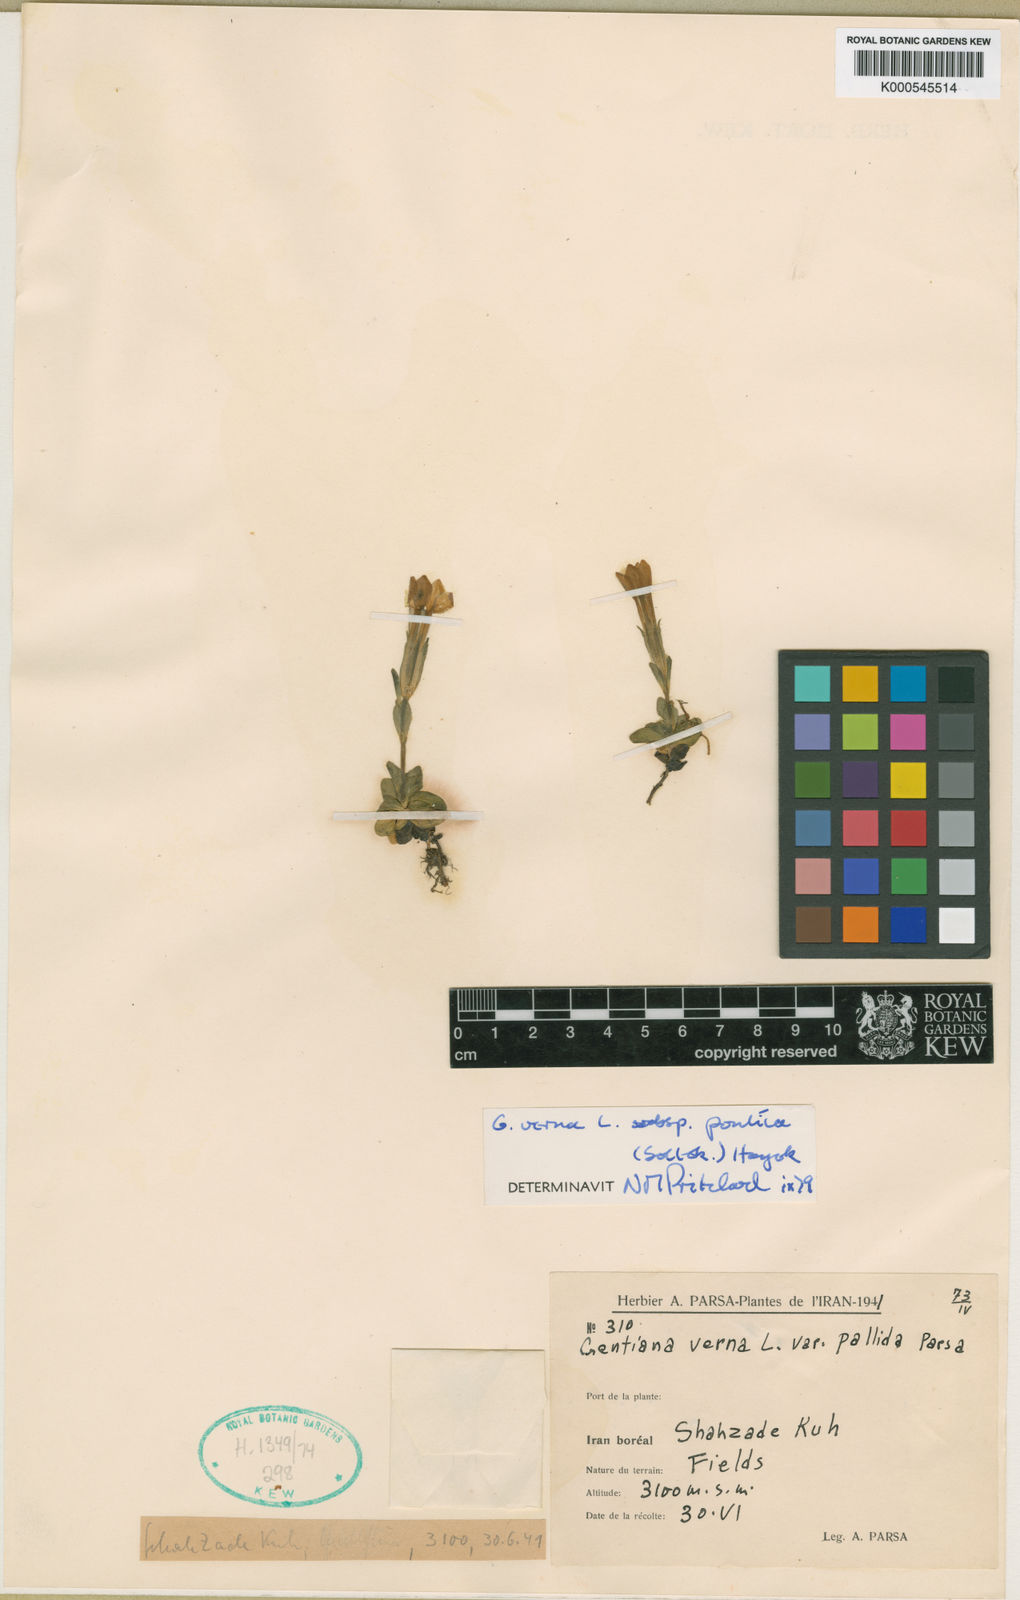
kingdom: Plantae
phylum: Tracheophyta
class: Magnoliopsida
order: Gentianales
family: Gentianaceae
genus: Gentiana
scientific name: Gentiana verna
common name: Spring gentian
